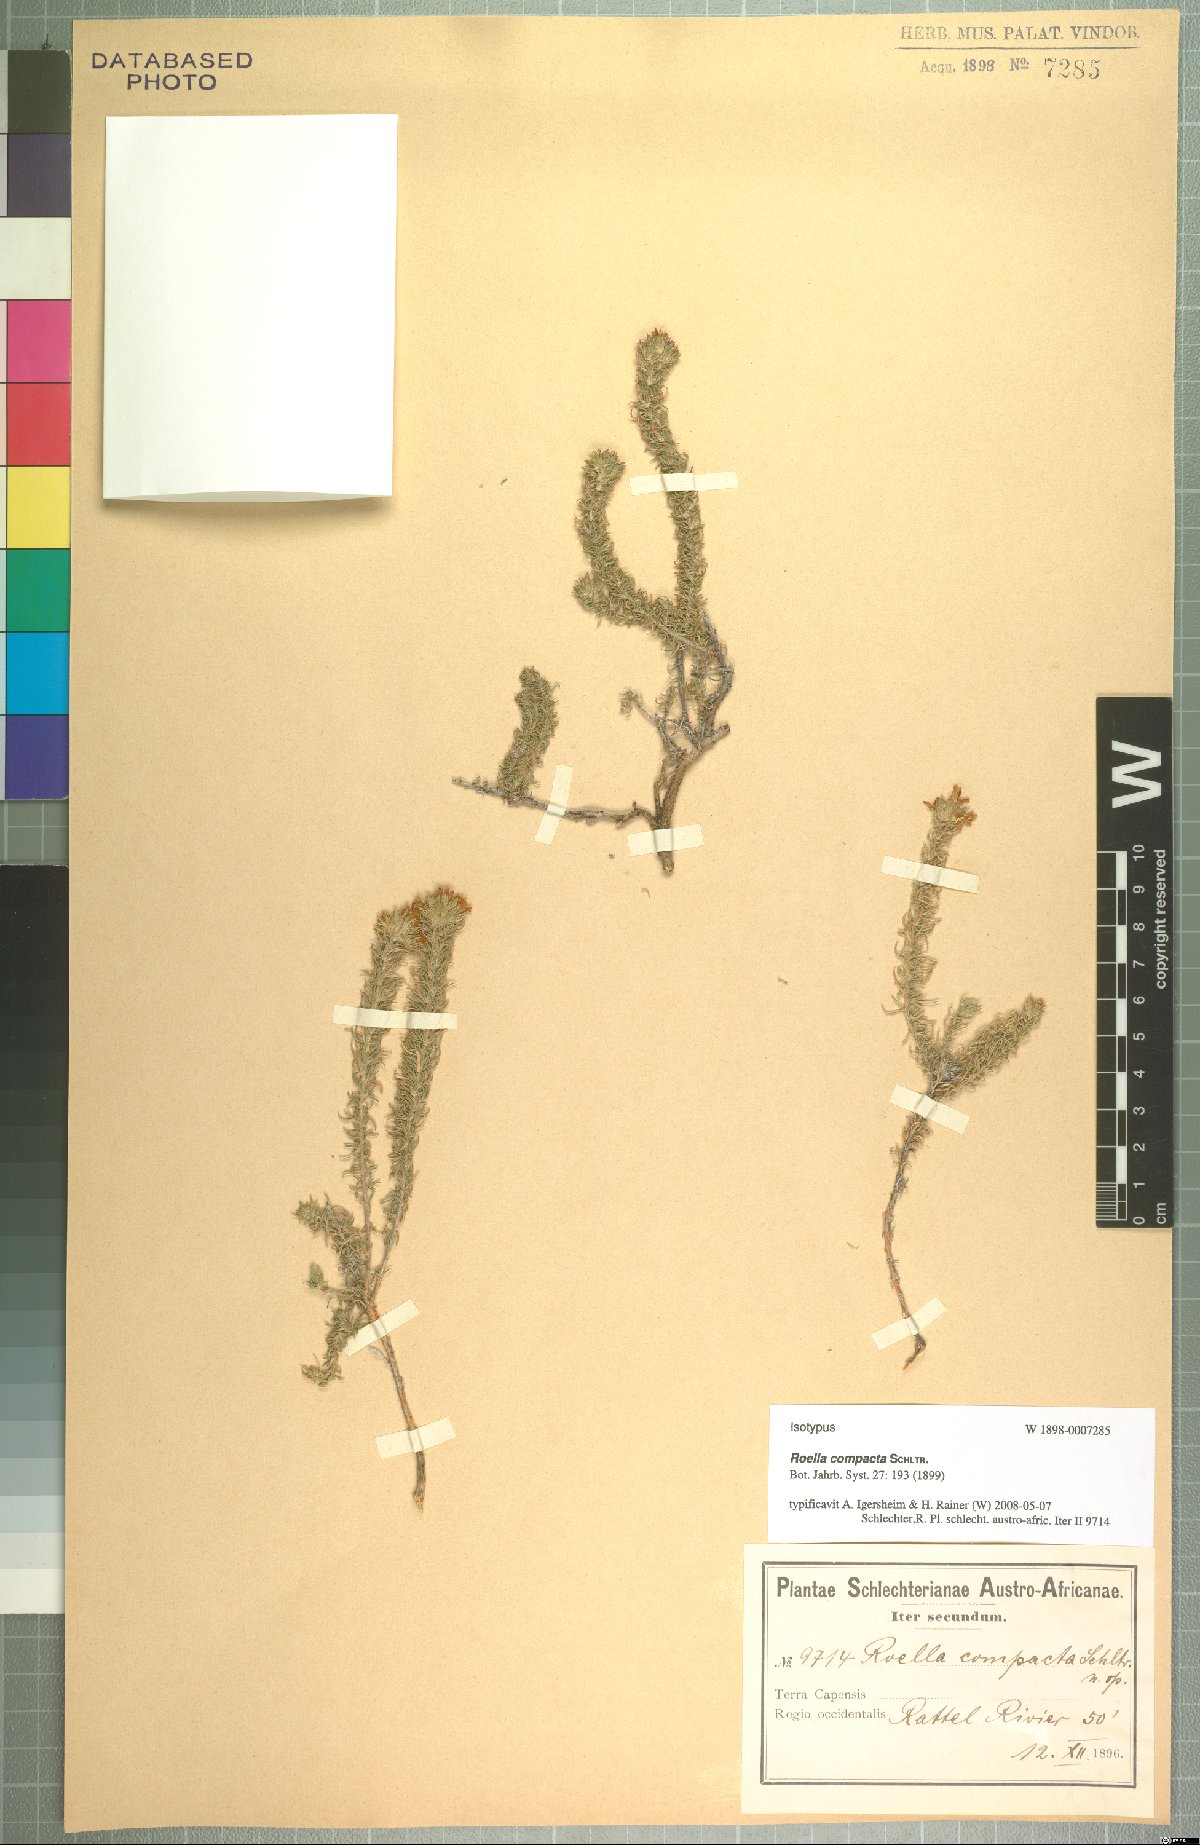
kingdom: Plantae
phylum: Tracheophyta
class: Magnoliopsida
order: Asterales
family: Campanulaceae
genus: Roella
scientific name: Roella compacta
